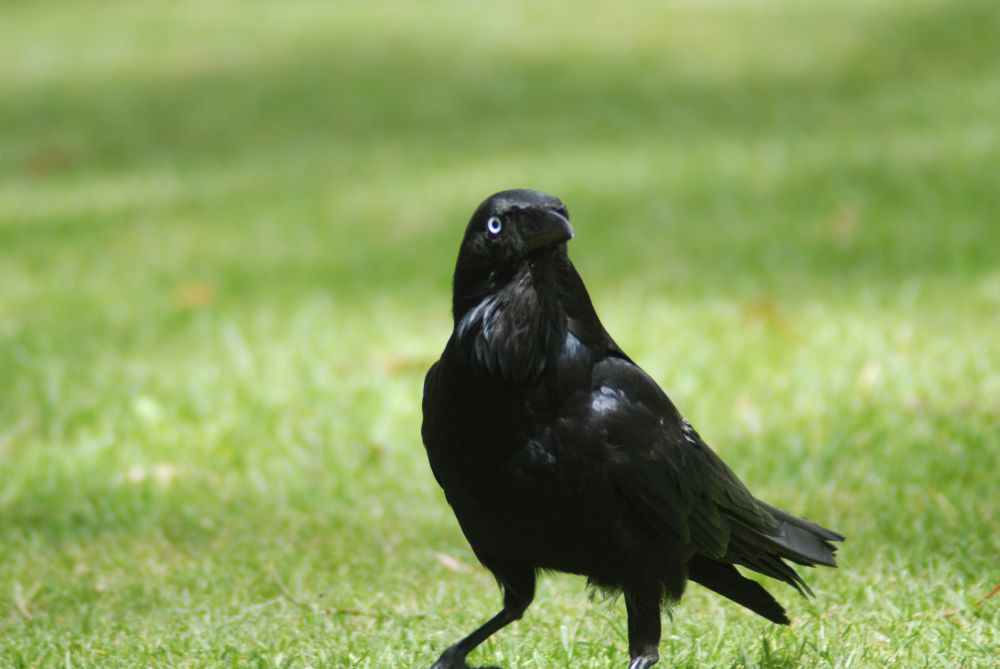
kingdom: Animalia
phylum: Chordata
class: Aves
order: Passeriformes
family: Corvidae
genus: Corvus
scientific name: Corvus coronoides
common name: Australian raven
